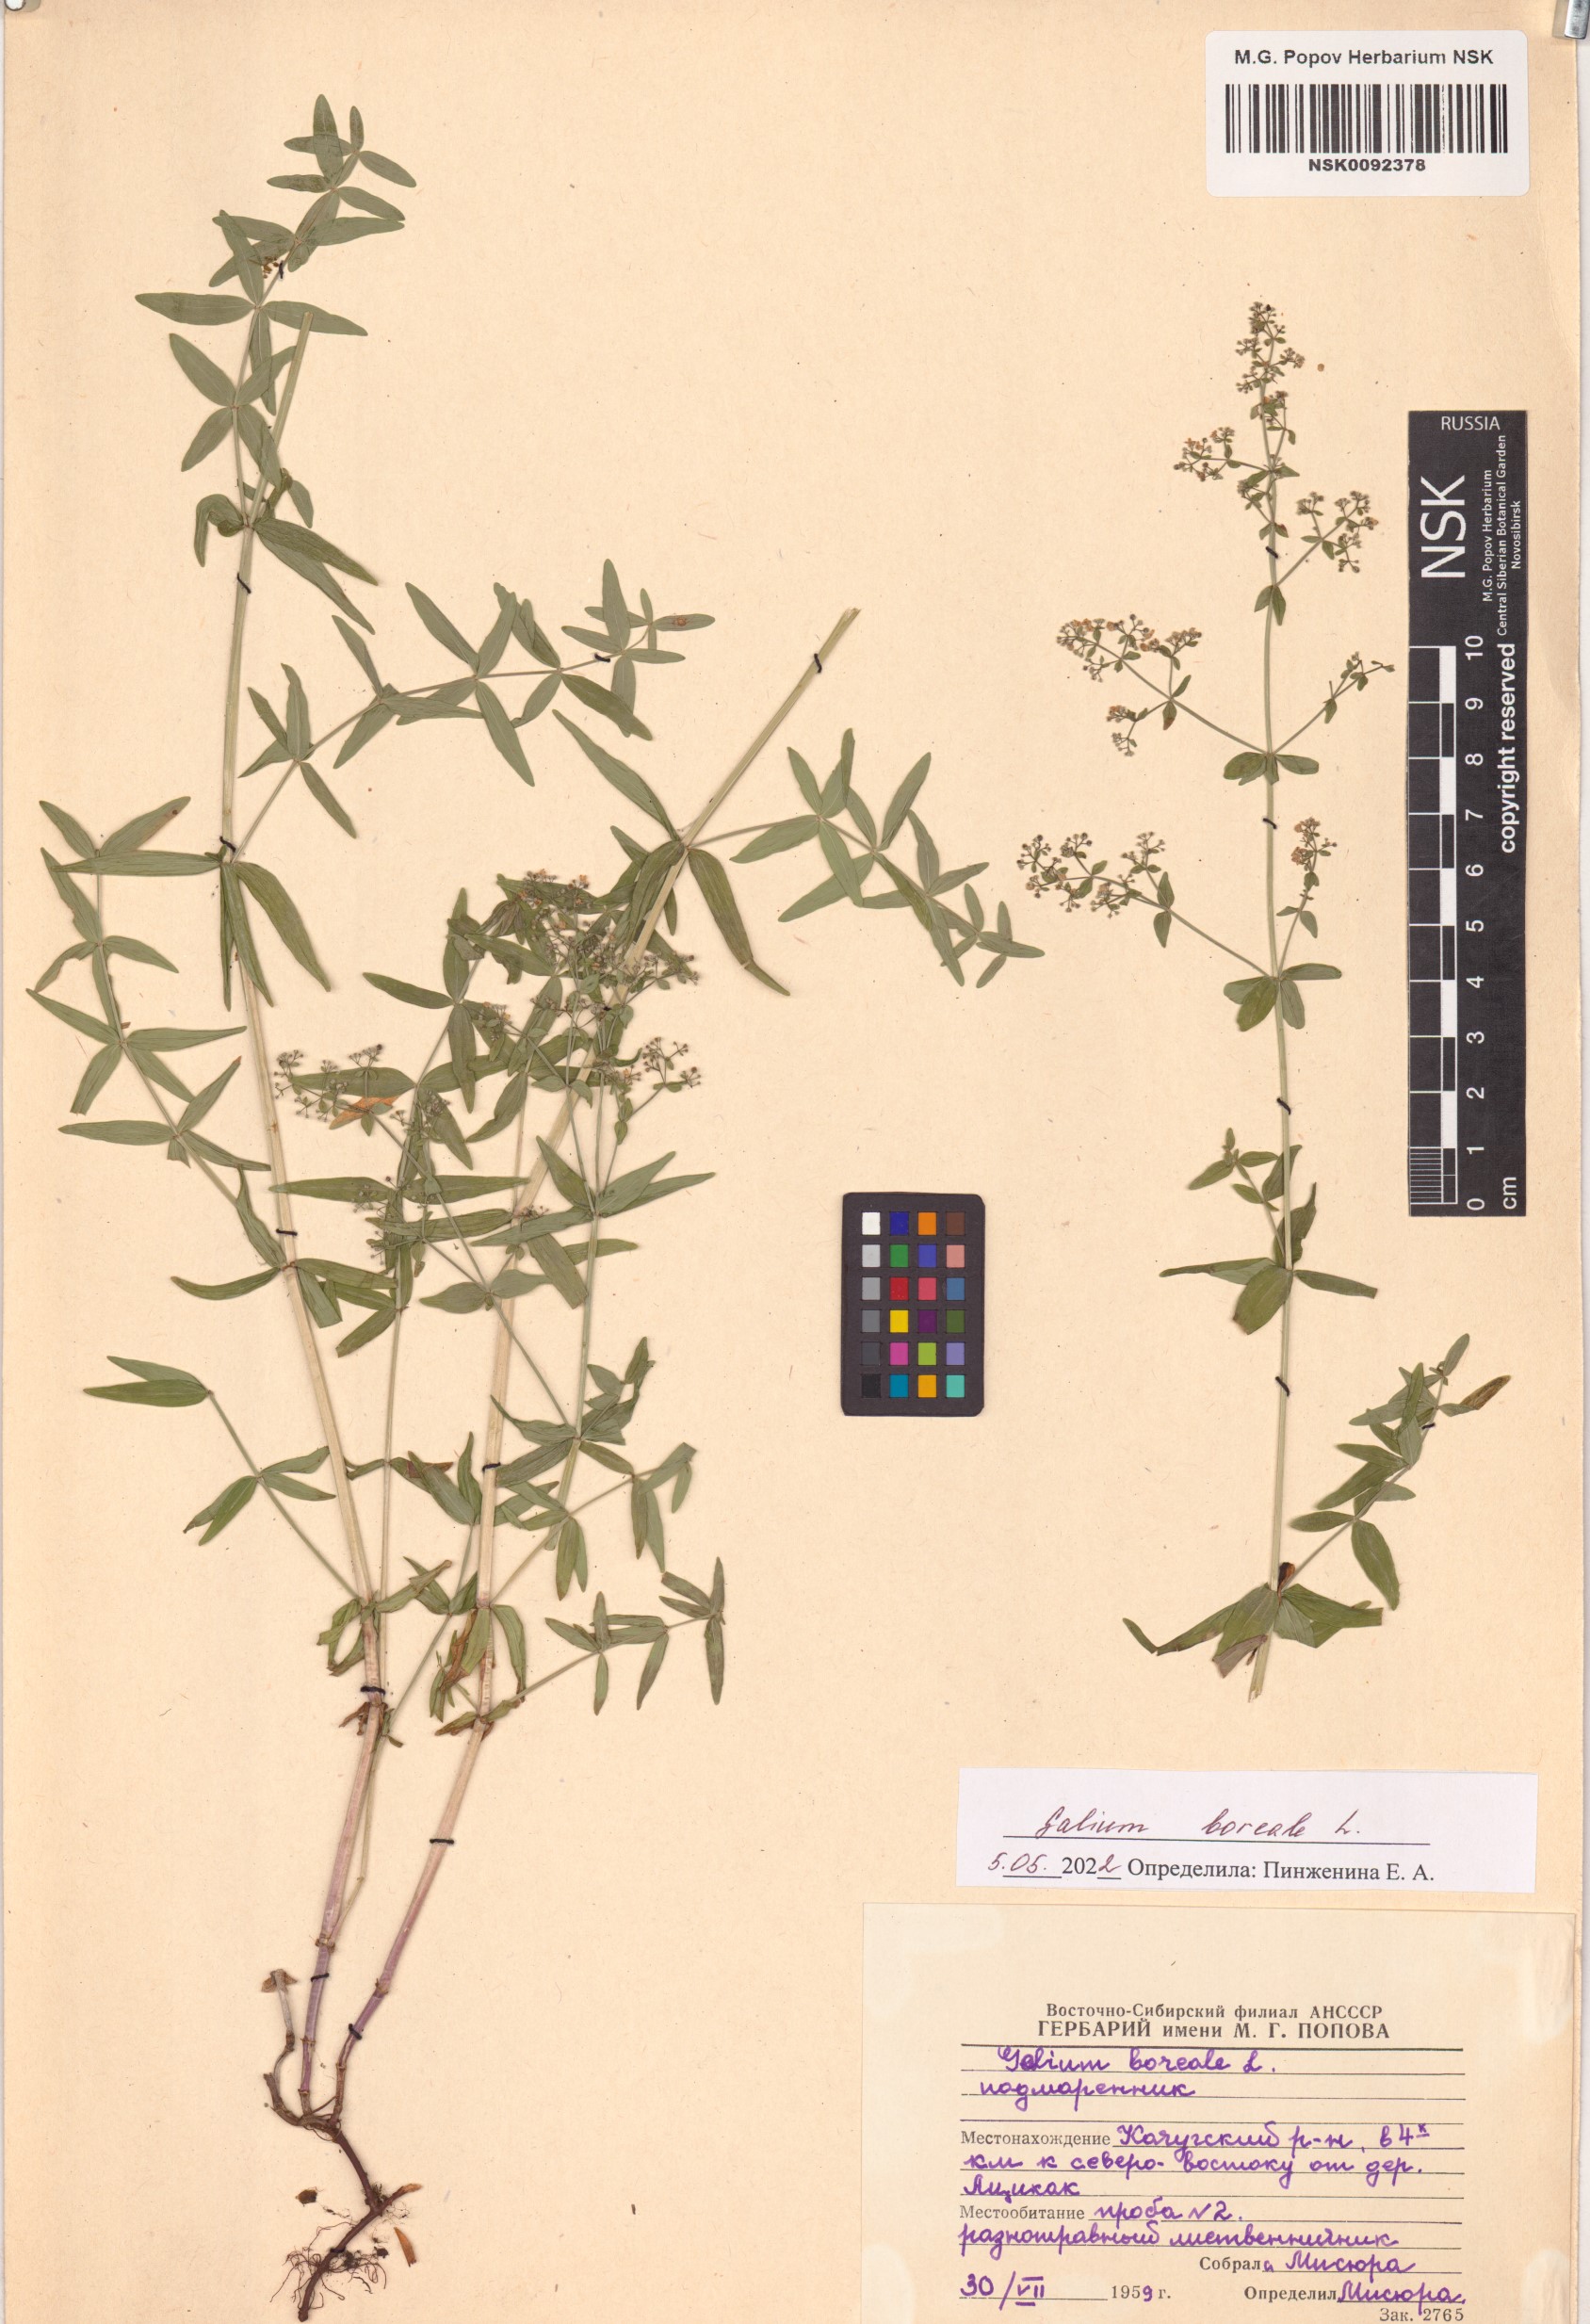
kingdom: Plantae
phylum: Tracheophyta
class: Magnoliopsida
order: Gentianales
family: Rubiaceae
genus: Galium
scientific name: Galium boreale
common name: Northern bedstraw
